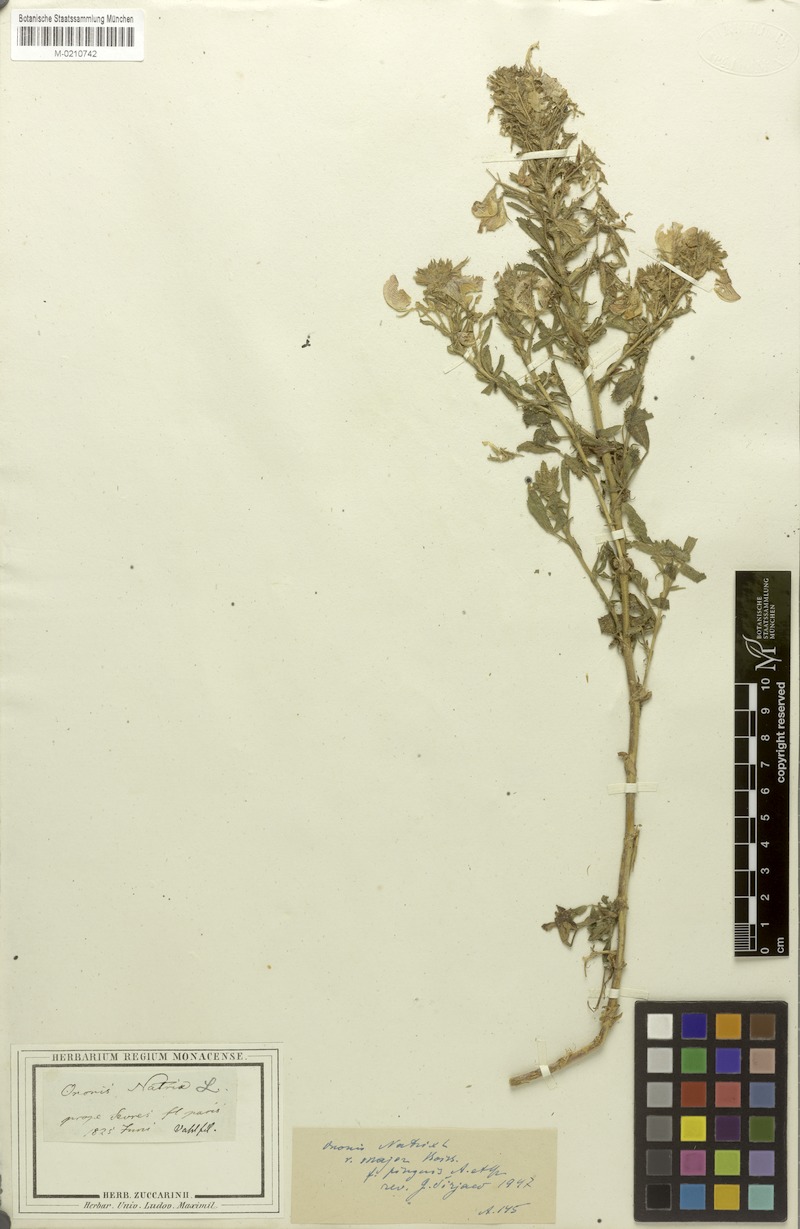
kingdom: Plantae
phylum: Tracheophyta
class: Magnoliopsida
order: Fabales
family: Fabaceae
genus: Ononis
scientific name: Ononis natrix
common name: Yellow restharrow
